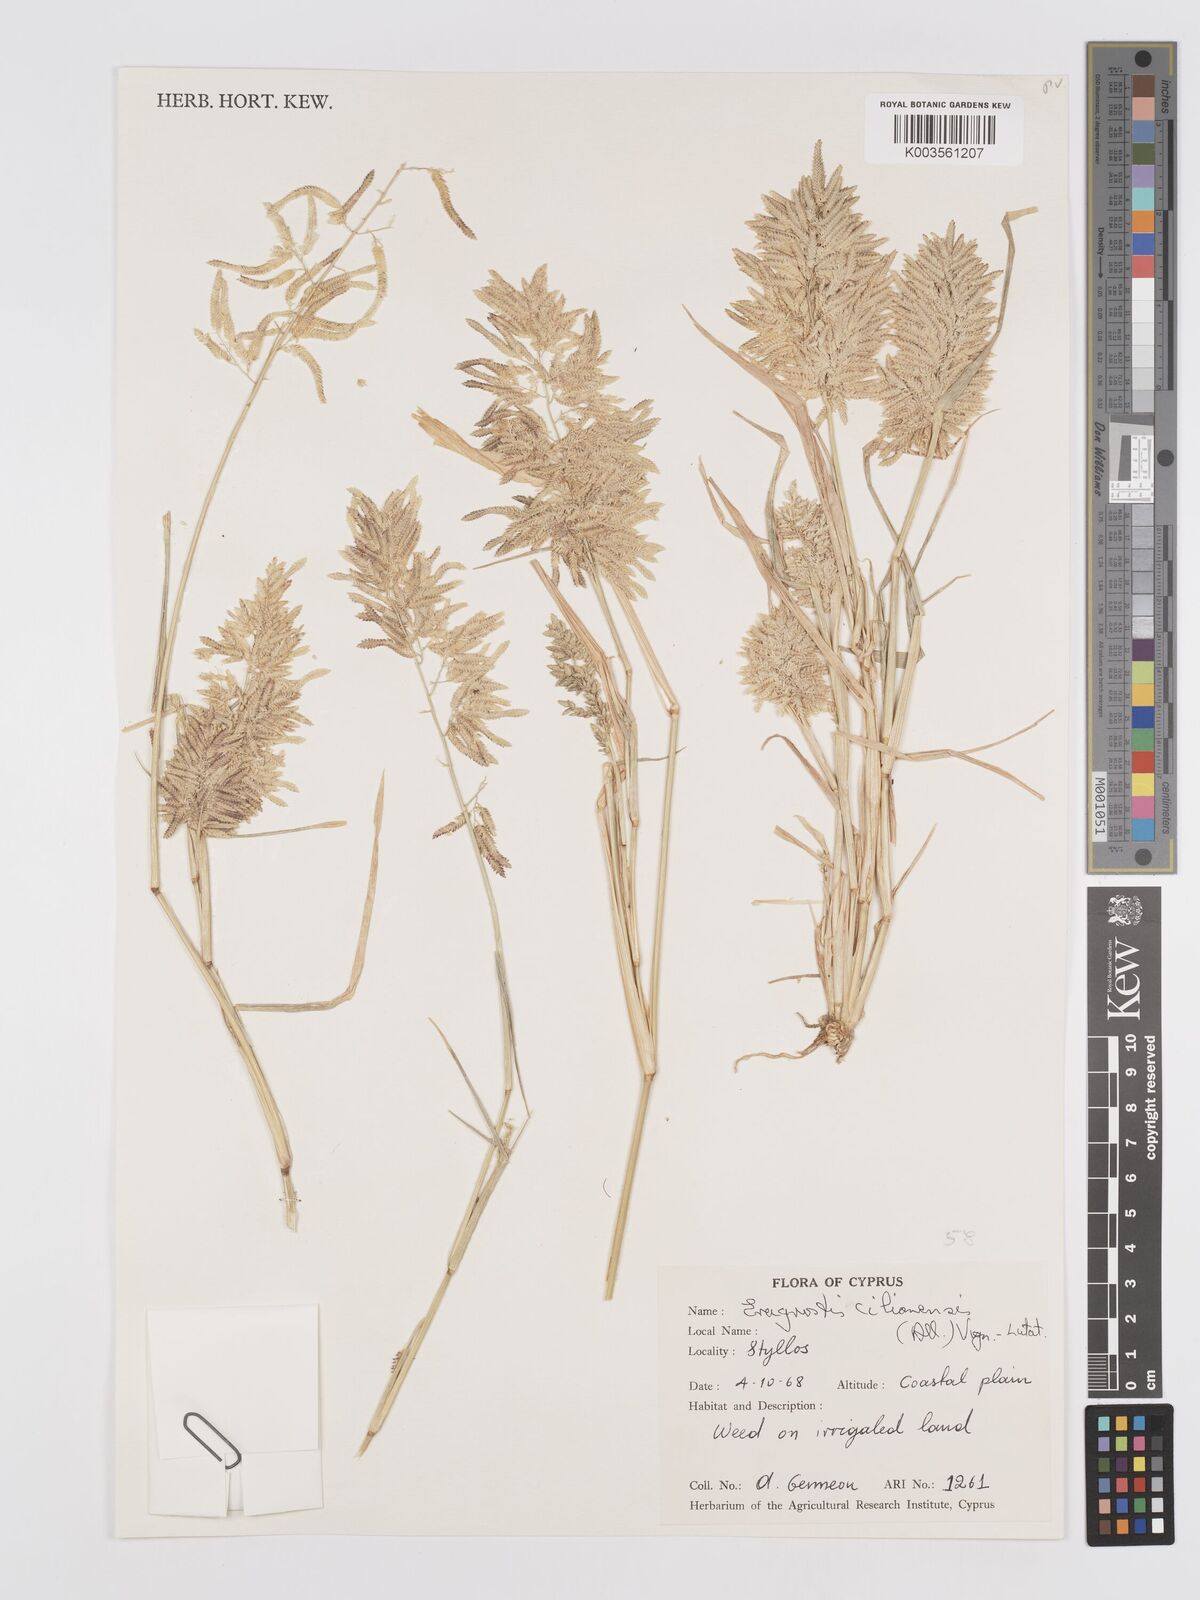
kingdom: Plantae
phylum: Tracheophyta
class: Liliopsida
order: Poales
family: Poaceae
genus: Eragrostis
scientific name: Eragrostis cilianensis
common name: Stinkgrass
